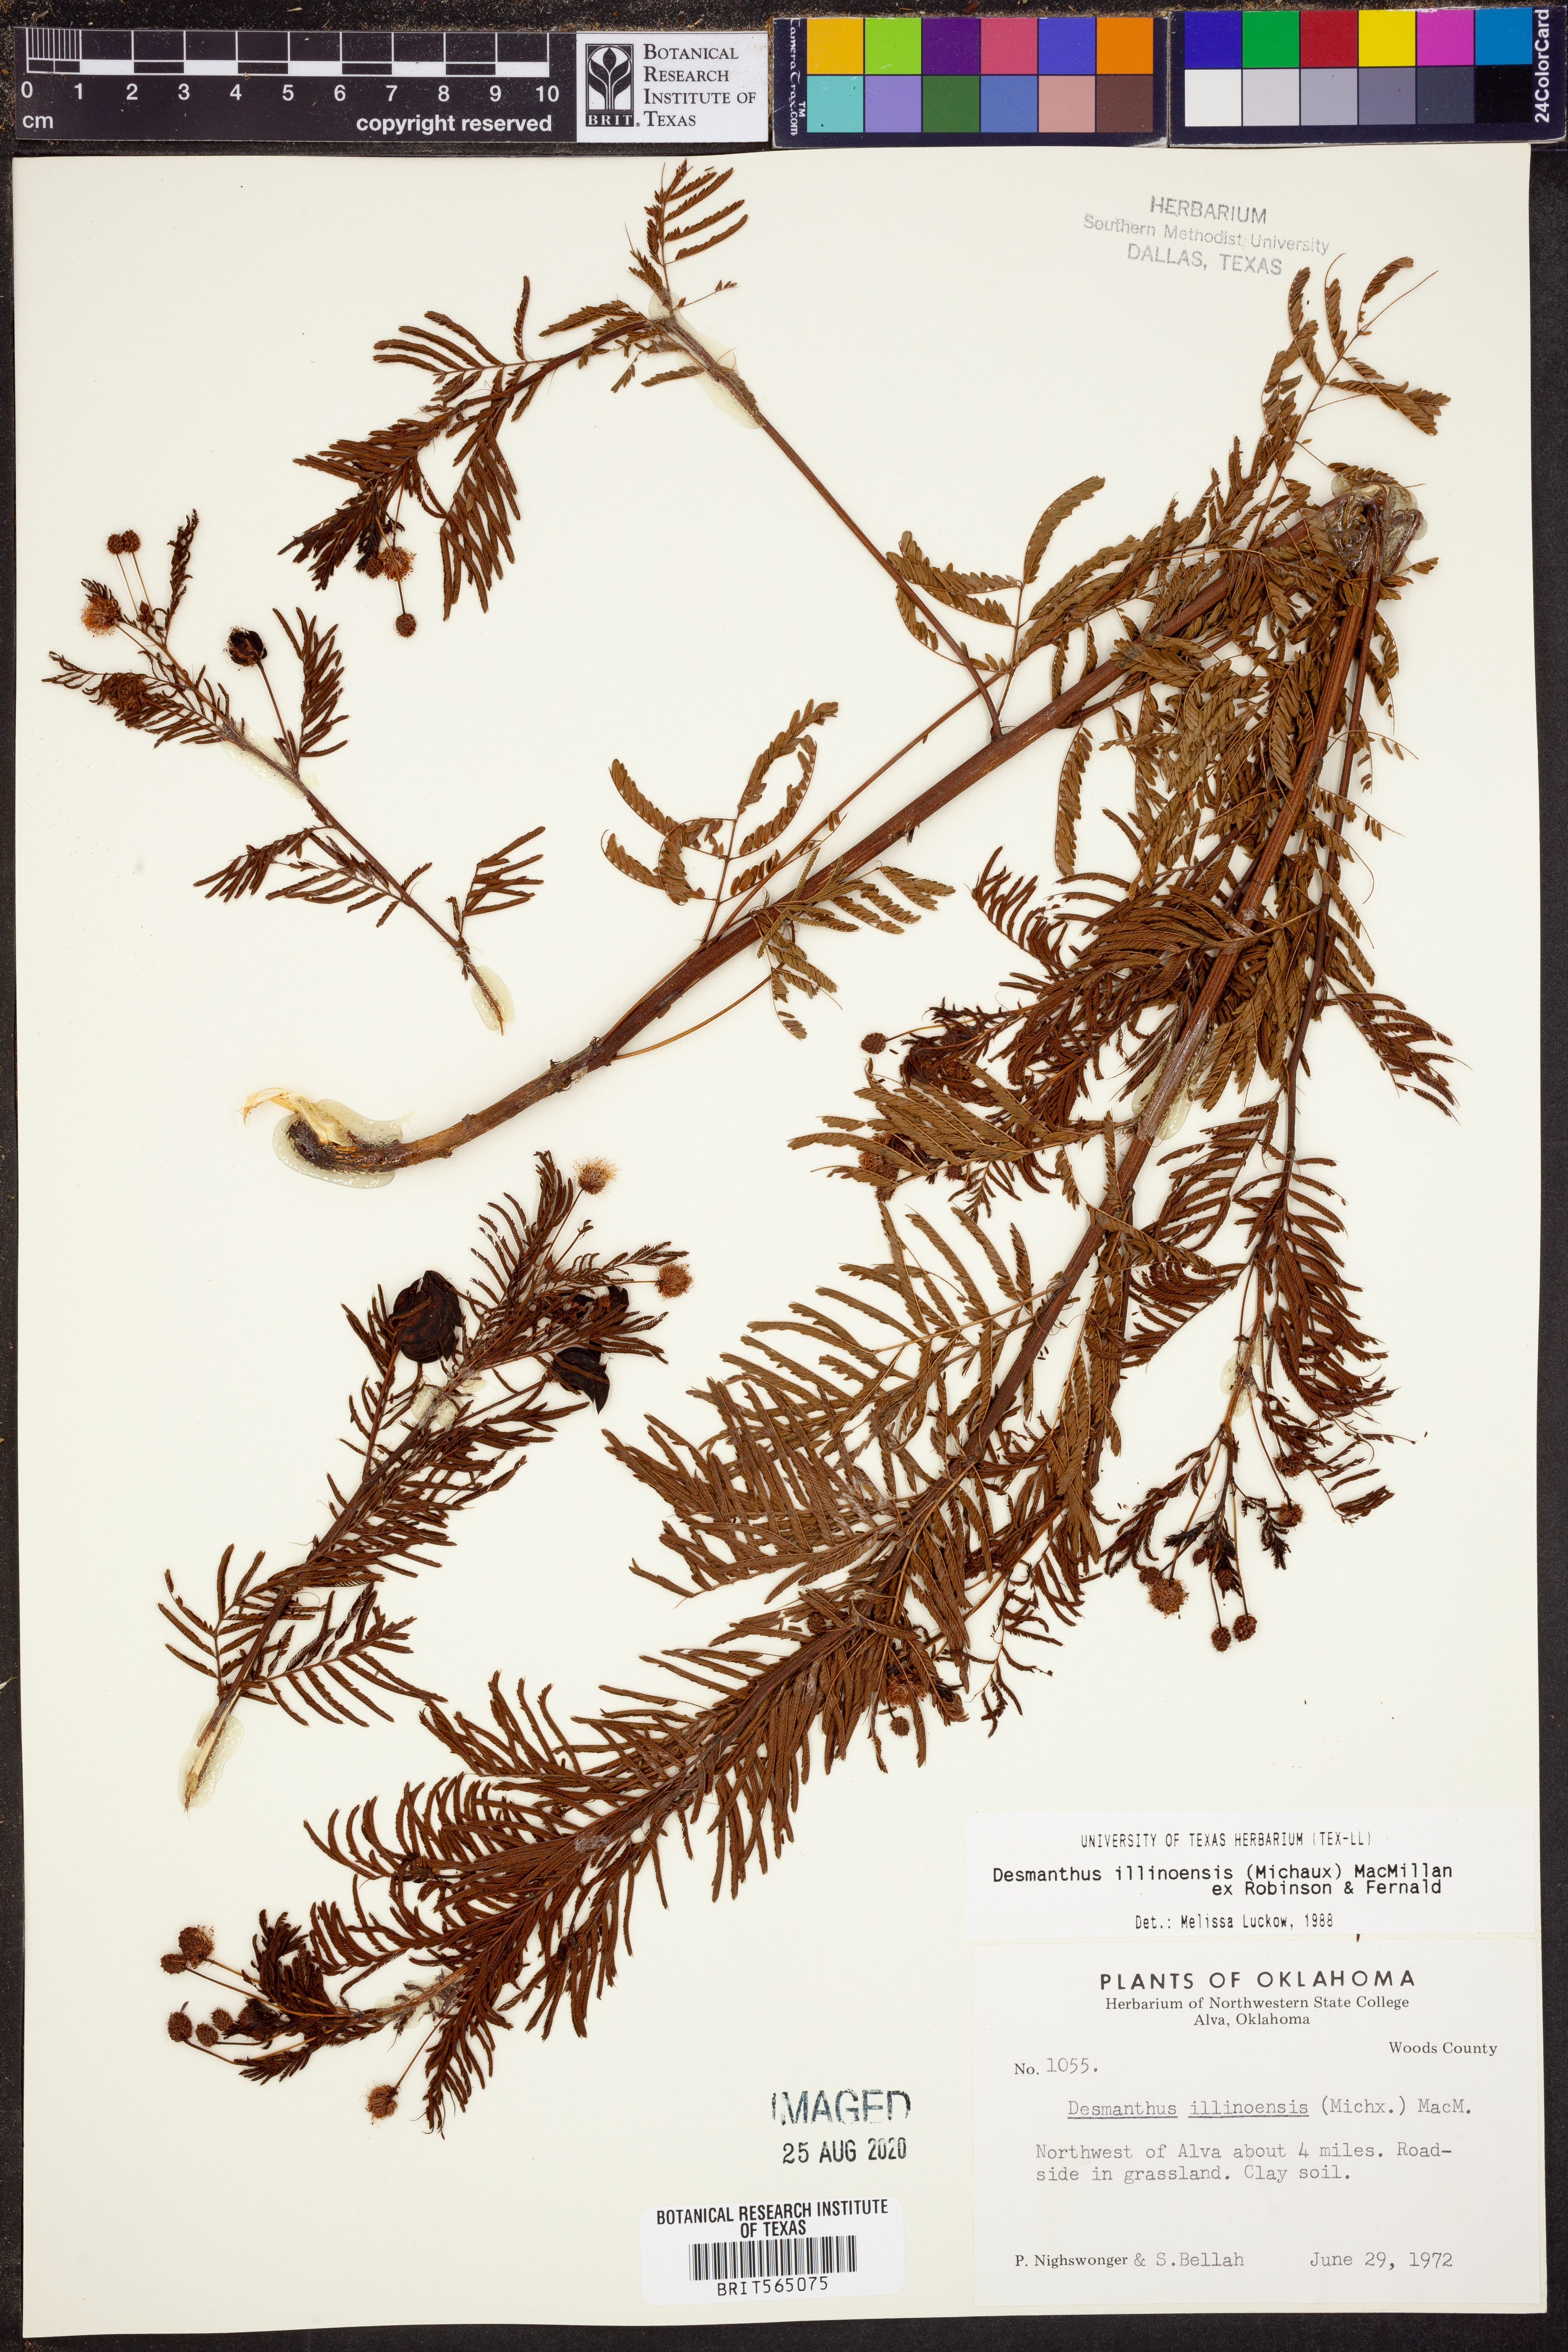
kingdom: Plantae
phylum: Tracheophyta
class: Magnoliopsida
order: Fabales
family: Fabaceae
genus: Desmanthus
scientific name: Desmanthus illinoensis
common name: Illinois bundle-flower
